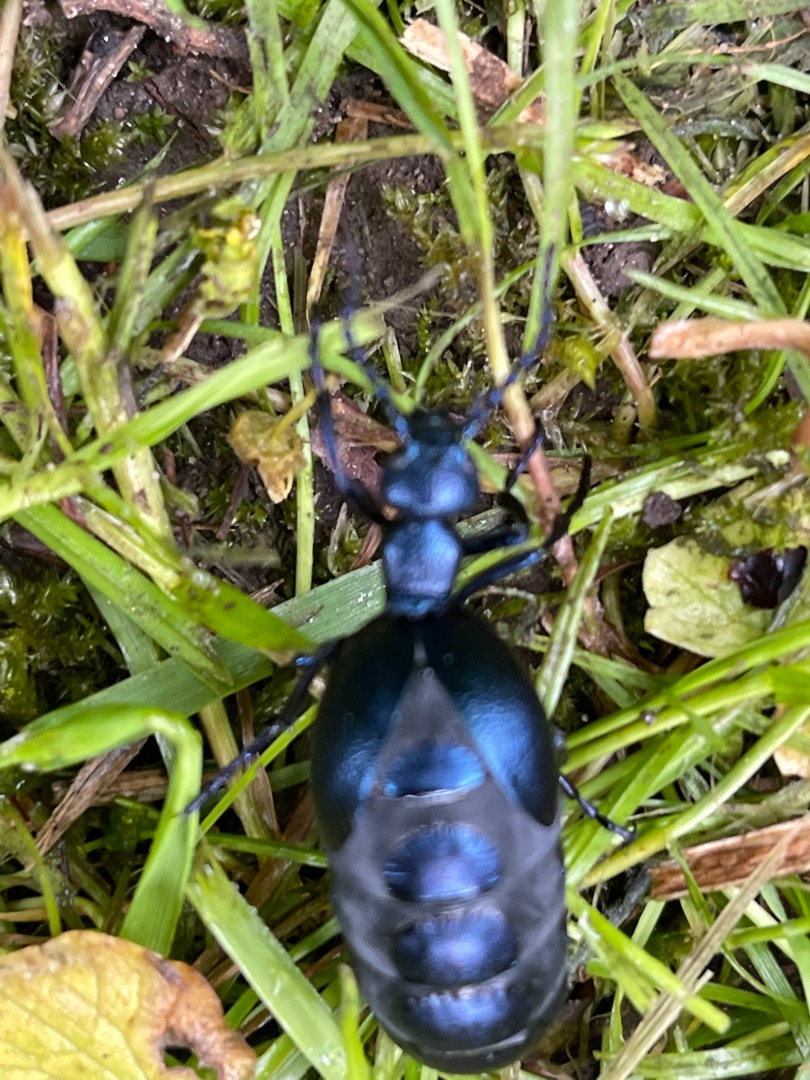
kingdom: Animalia
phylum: Arthropoda
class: Insecta
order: Coleoptera
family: Meloidae
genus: Meloe
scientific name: Meloe violaceus
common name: Blå oliebille
